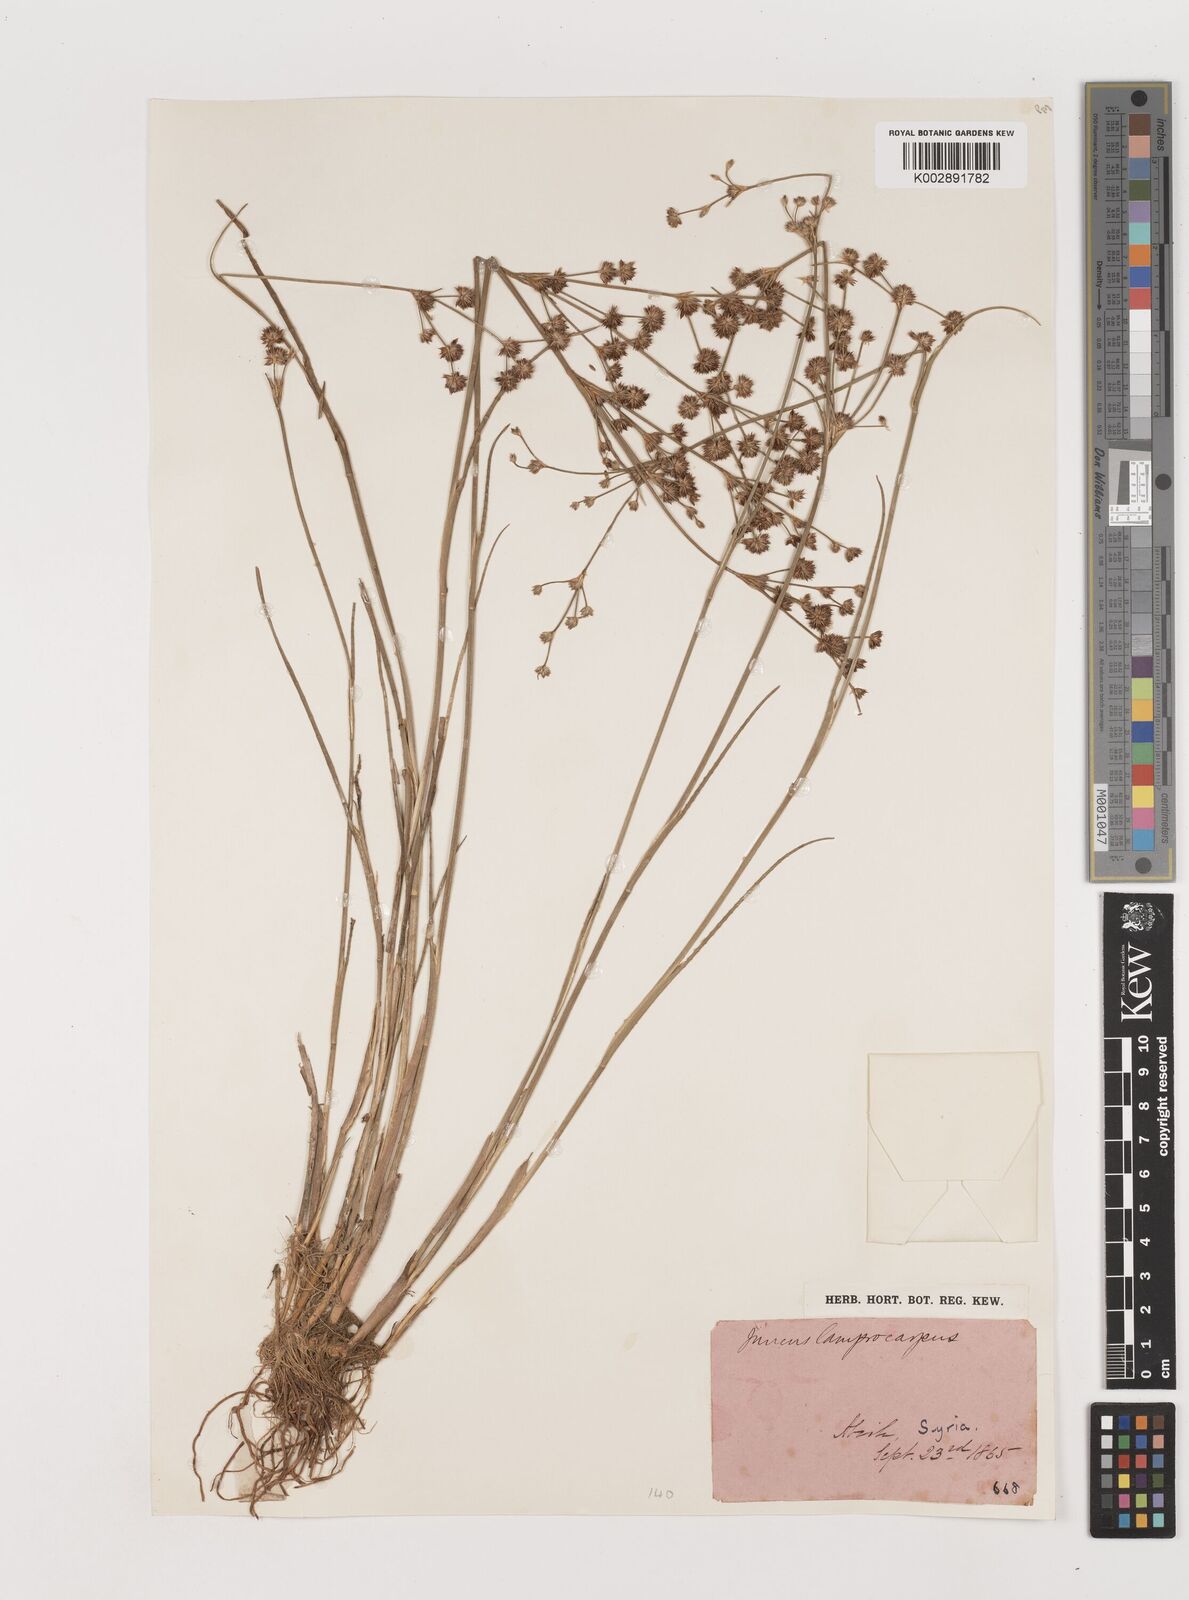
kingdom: Plantae
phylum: Tracheophyta
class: Liliopsida
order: Poales
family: Juncaceae
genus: Juncus
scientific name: Juncus articulatus
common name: Jointed rush
